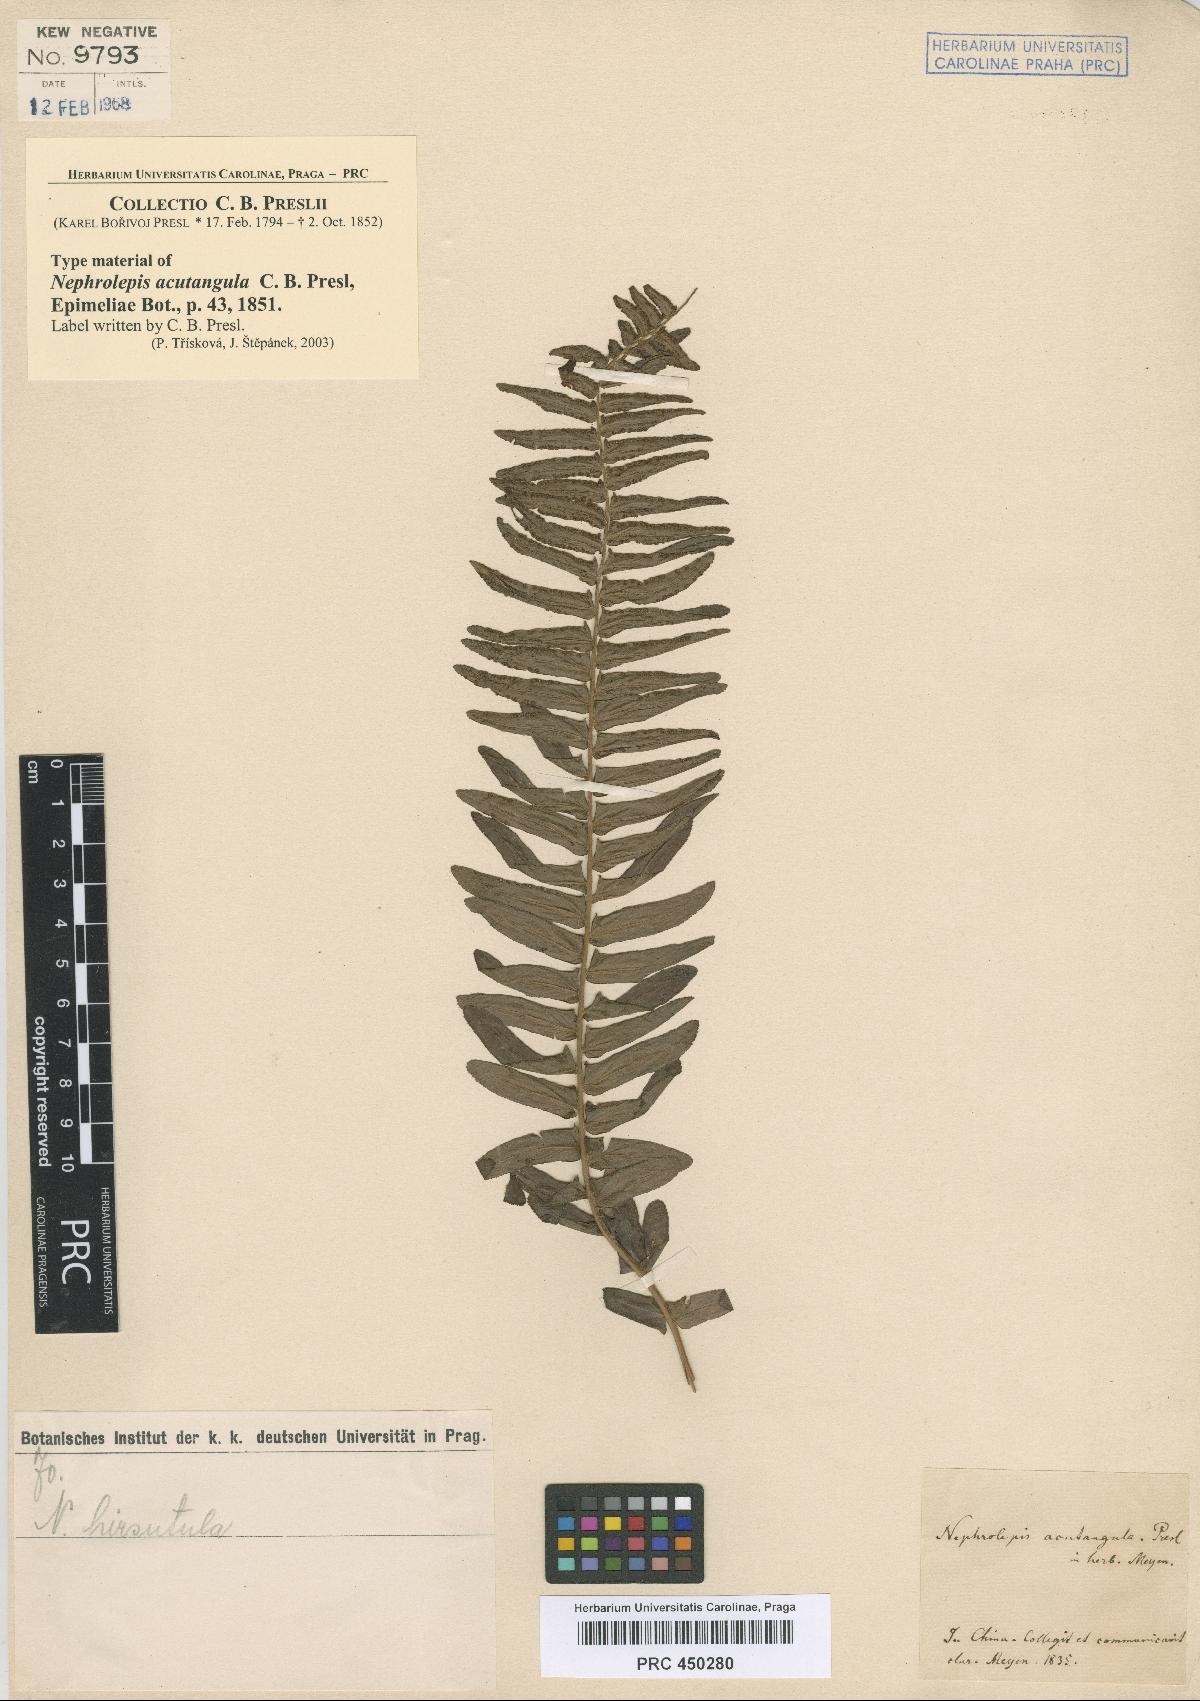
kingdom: Plantae
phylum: Tracheophyta
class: Polypodiopsida
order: Polypodiales
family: Nephrolepidaceae
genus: Nephrolepis
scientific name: Nephrolepis brownii
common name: Asian swordfern
